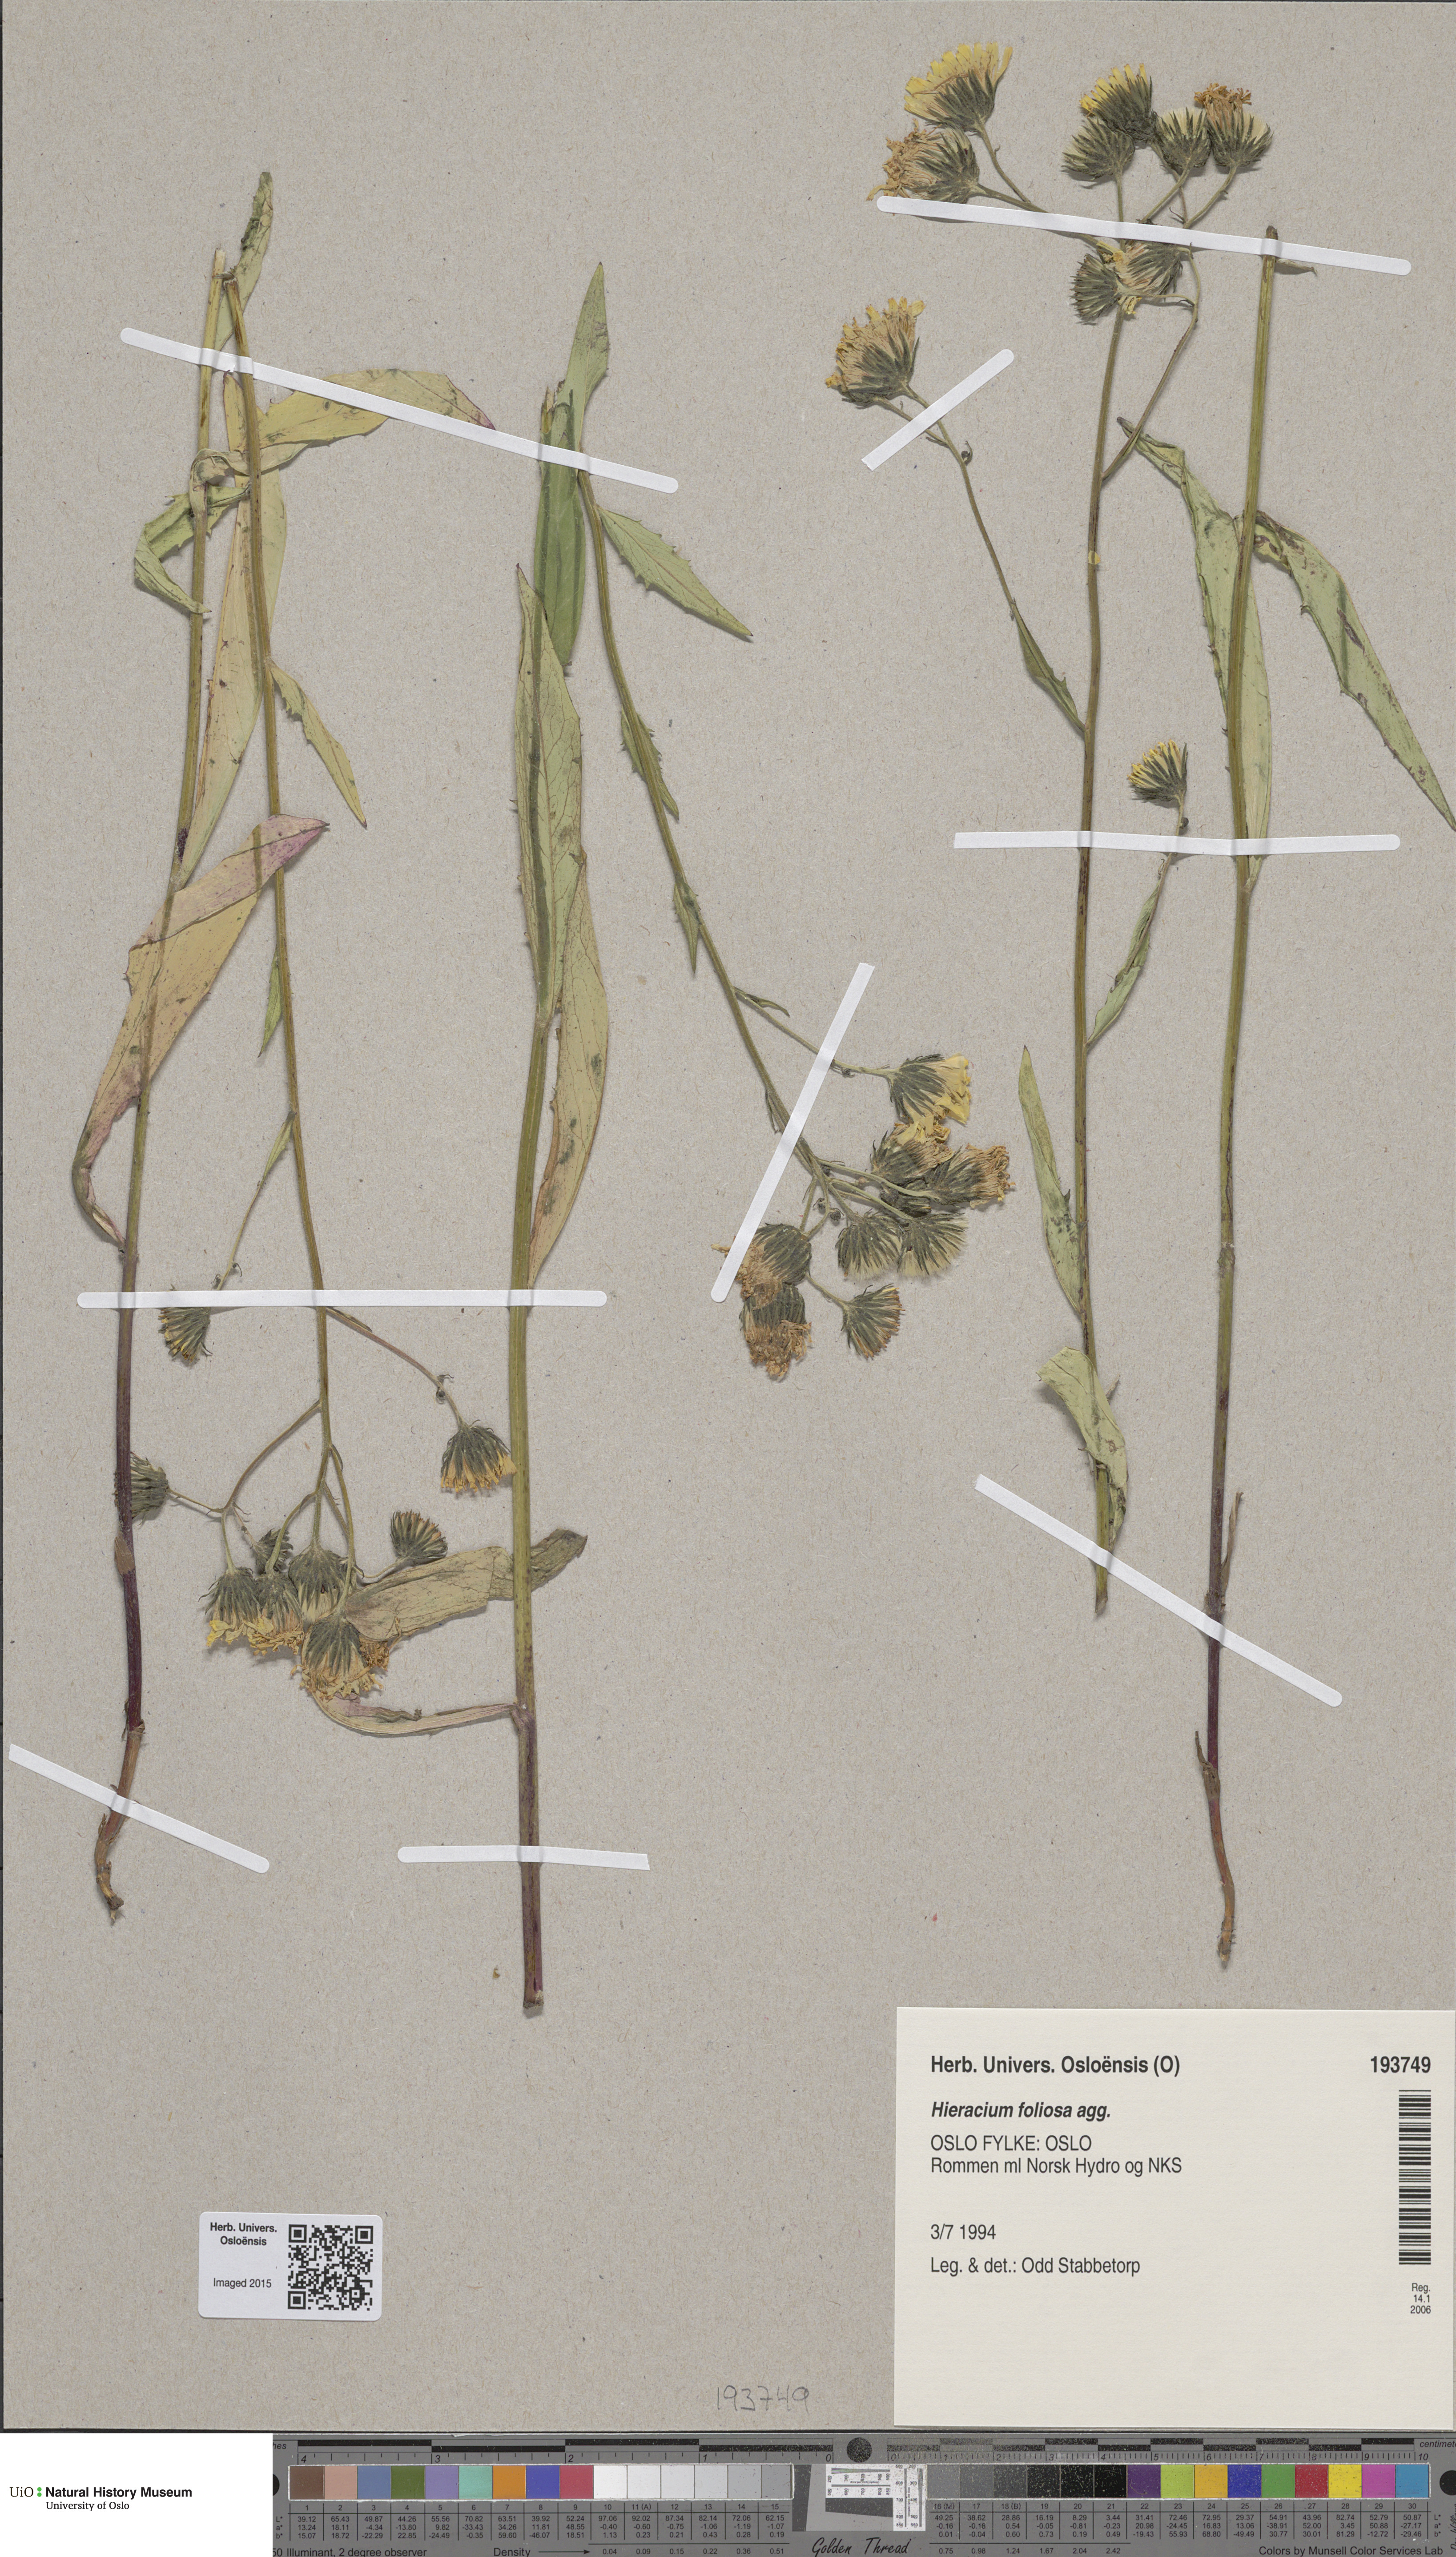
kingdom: Plantae
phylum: Tracheophyta
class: Magnoliopsida
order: Asterales
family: Asteraceae
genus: Hieracium
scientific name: Hieracium onosmoides
